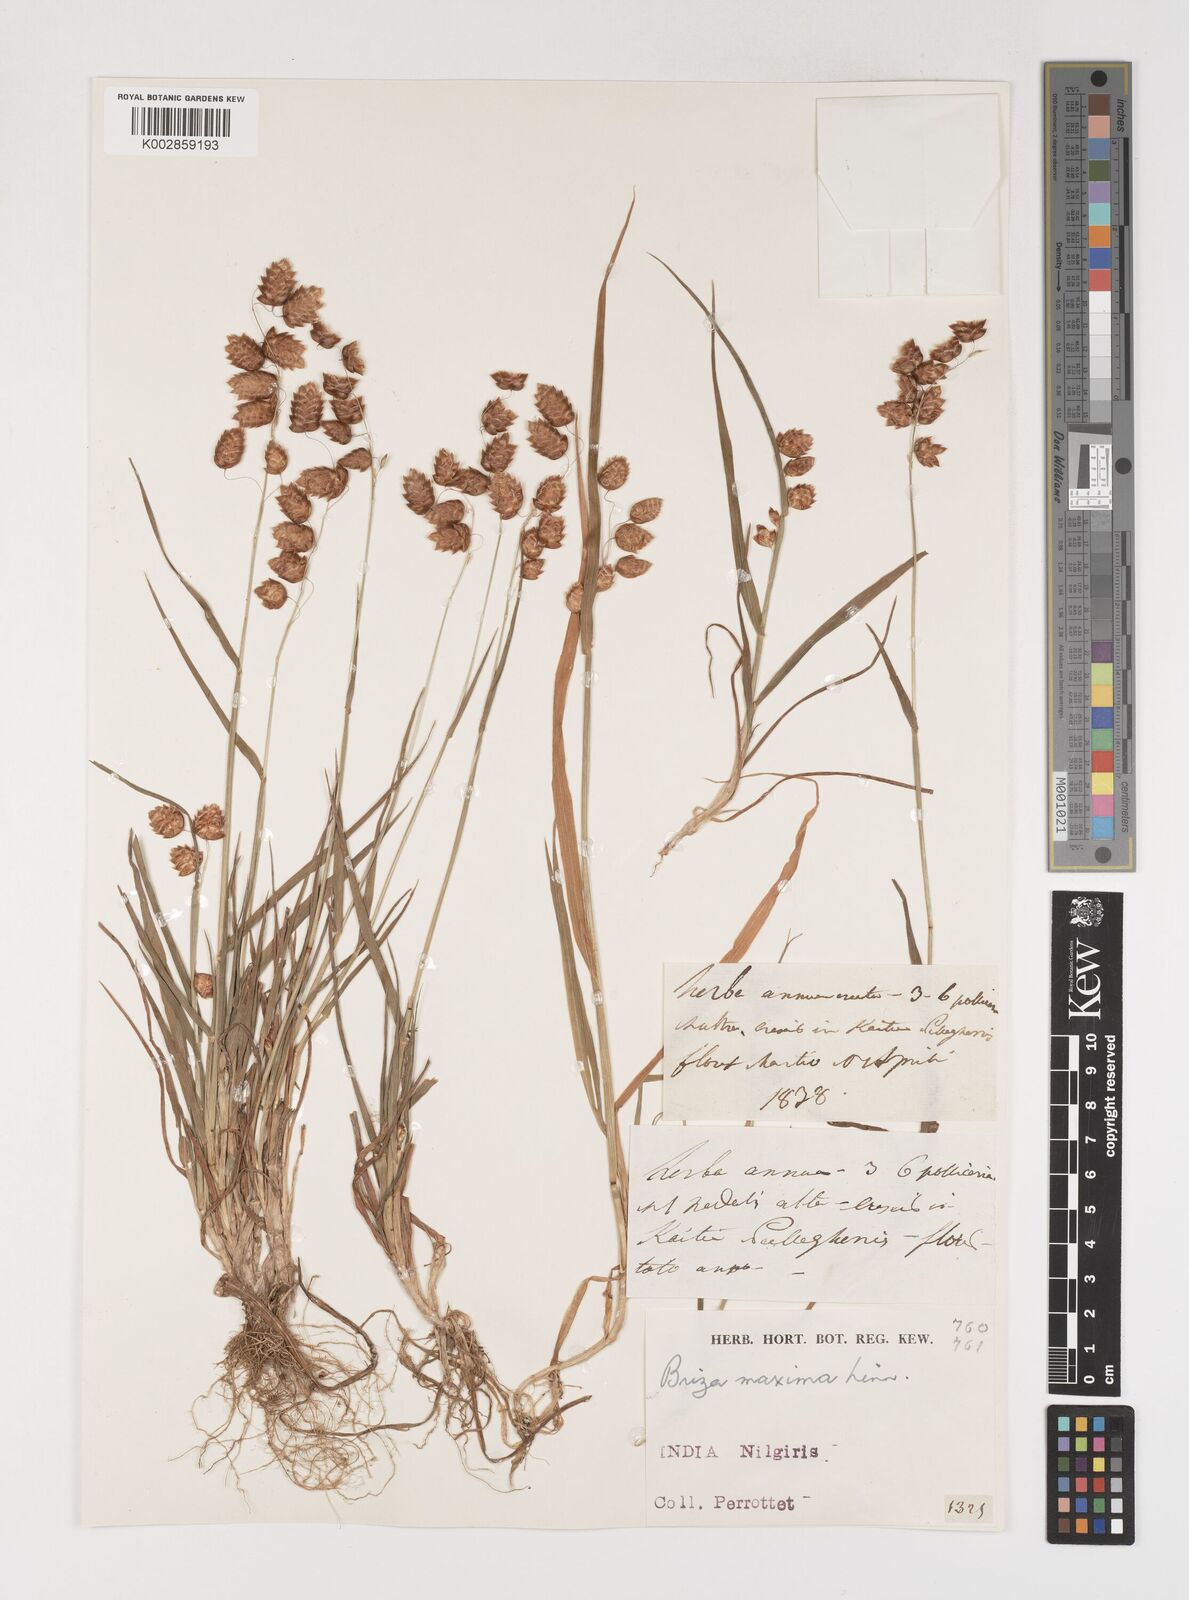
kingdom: Plantae
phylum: Tracheophyta
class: Liliopsida
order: Poales
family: Poaceae
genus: Briza
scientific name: Briza maxima
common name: Big quakinggrass
